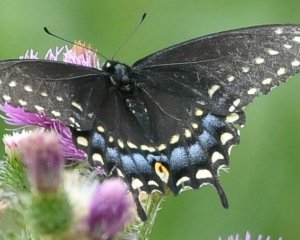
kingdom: Animalia
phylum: Arthropoda
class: Insecta
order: Lepidoptera
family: Papilionidae
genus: Papilio
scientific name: Papilio polyxenes
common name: Black Swallowtail
